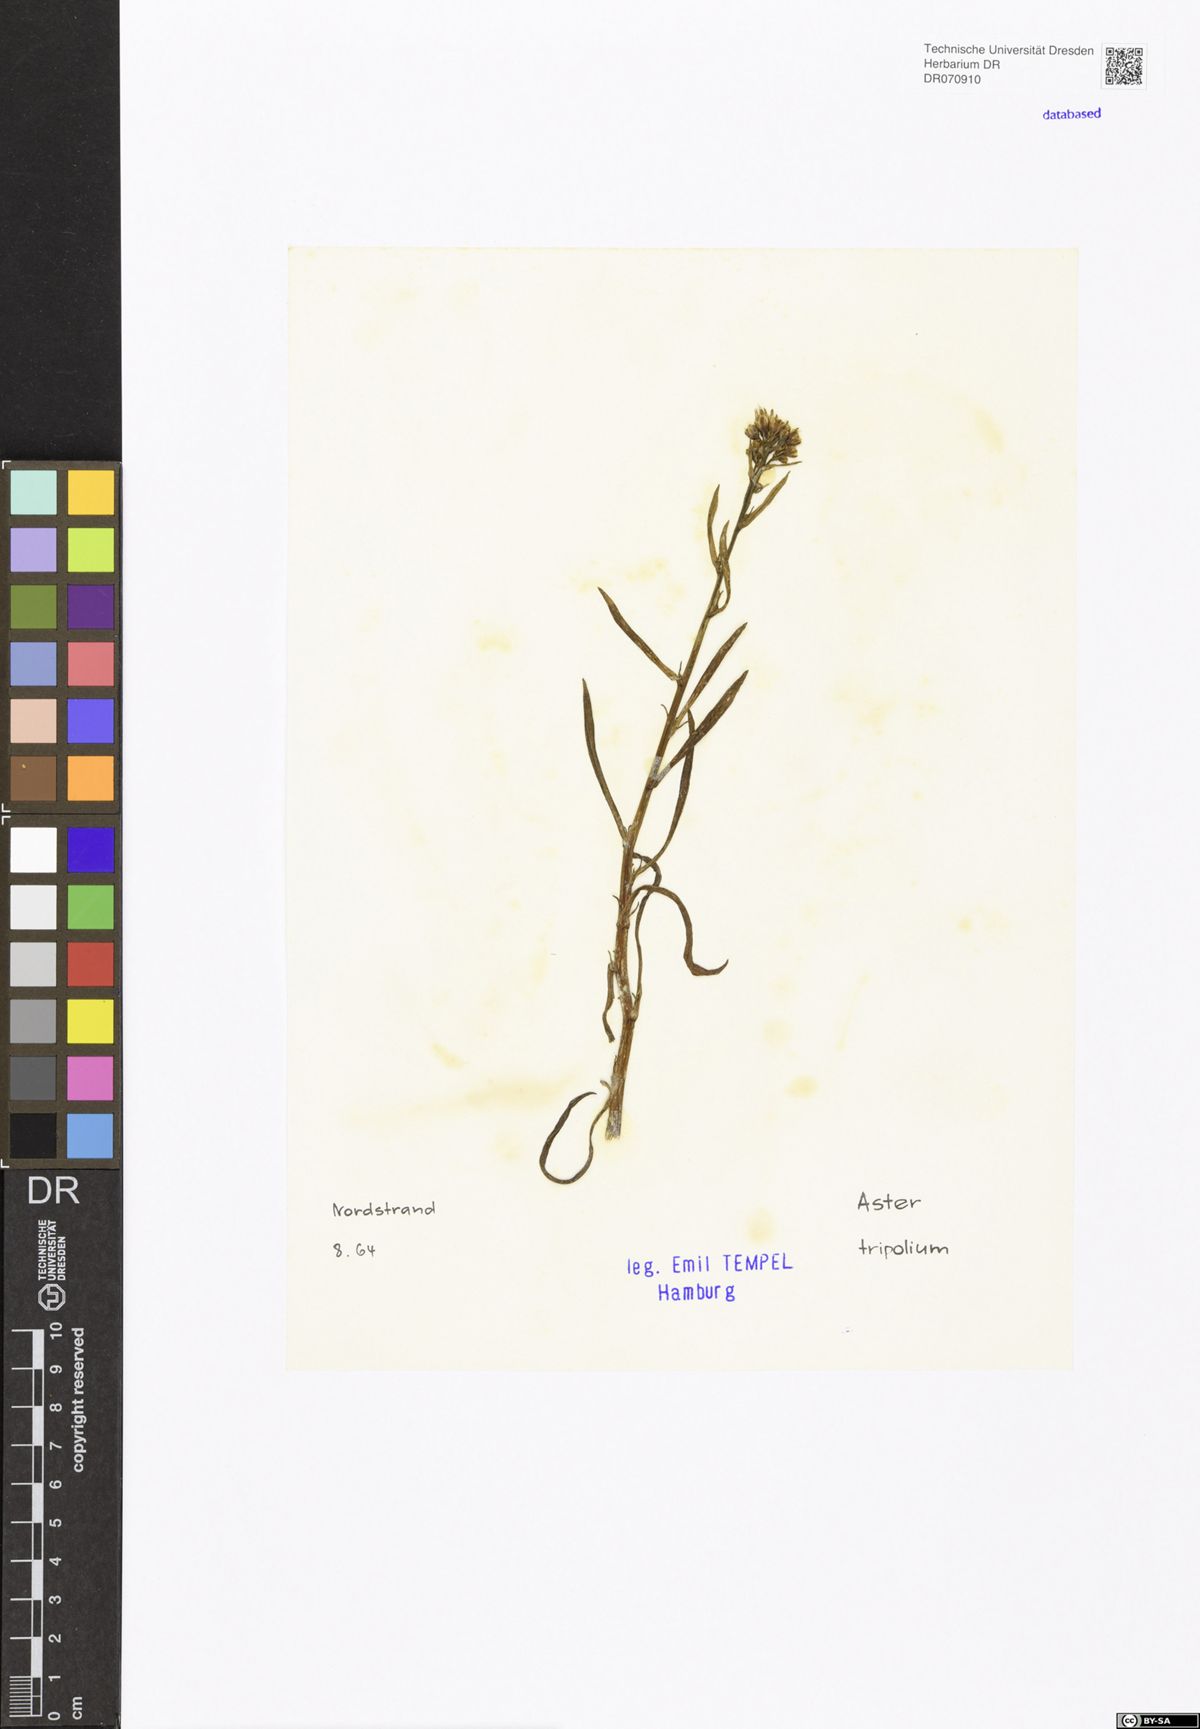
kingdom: Plantae
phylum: Tracheophyta
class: Magnoliopsida
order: Asterales
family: Asteraceae
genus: Tripolium
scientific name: Tripolium pannonicum
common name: Sea aster
